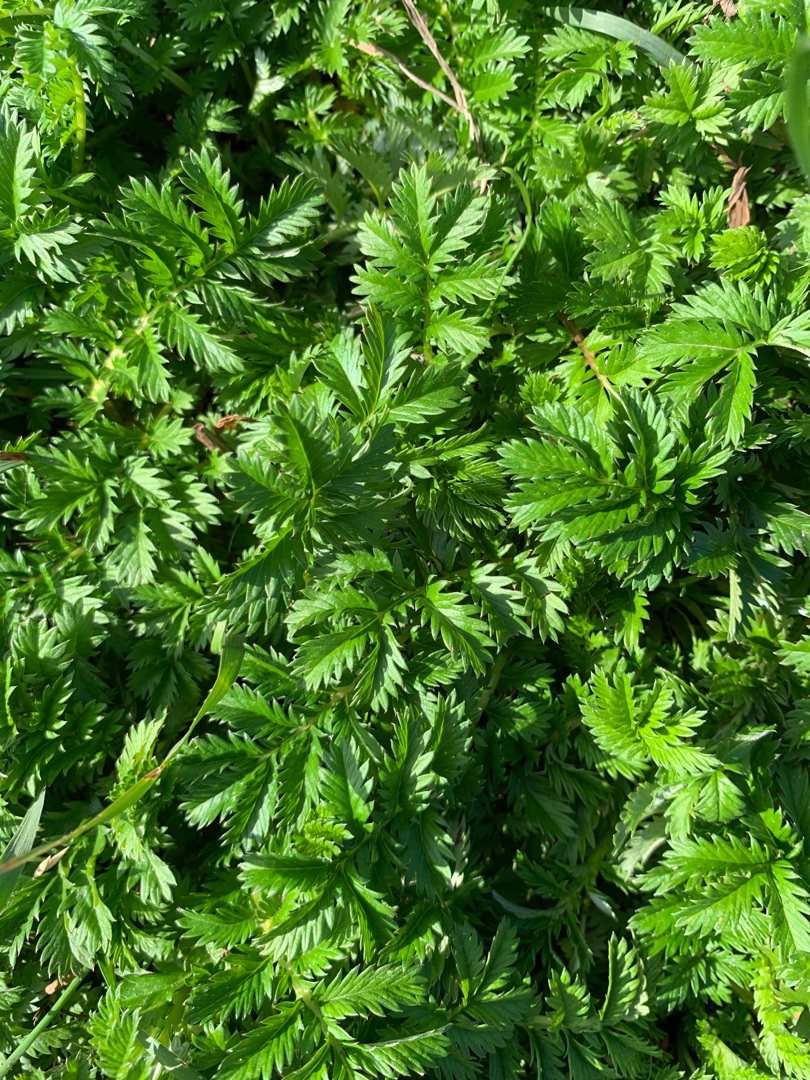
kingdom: Plantae
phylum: Tracheophyta
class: Magnoliopsida
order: Rosales
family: Rosaceae
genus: Argentina
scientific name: Argentina anserina
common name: Gåsepotentil
